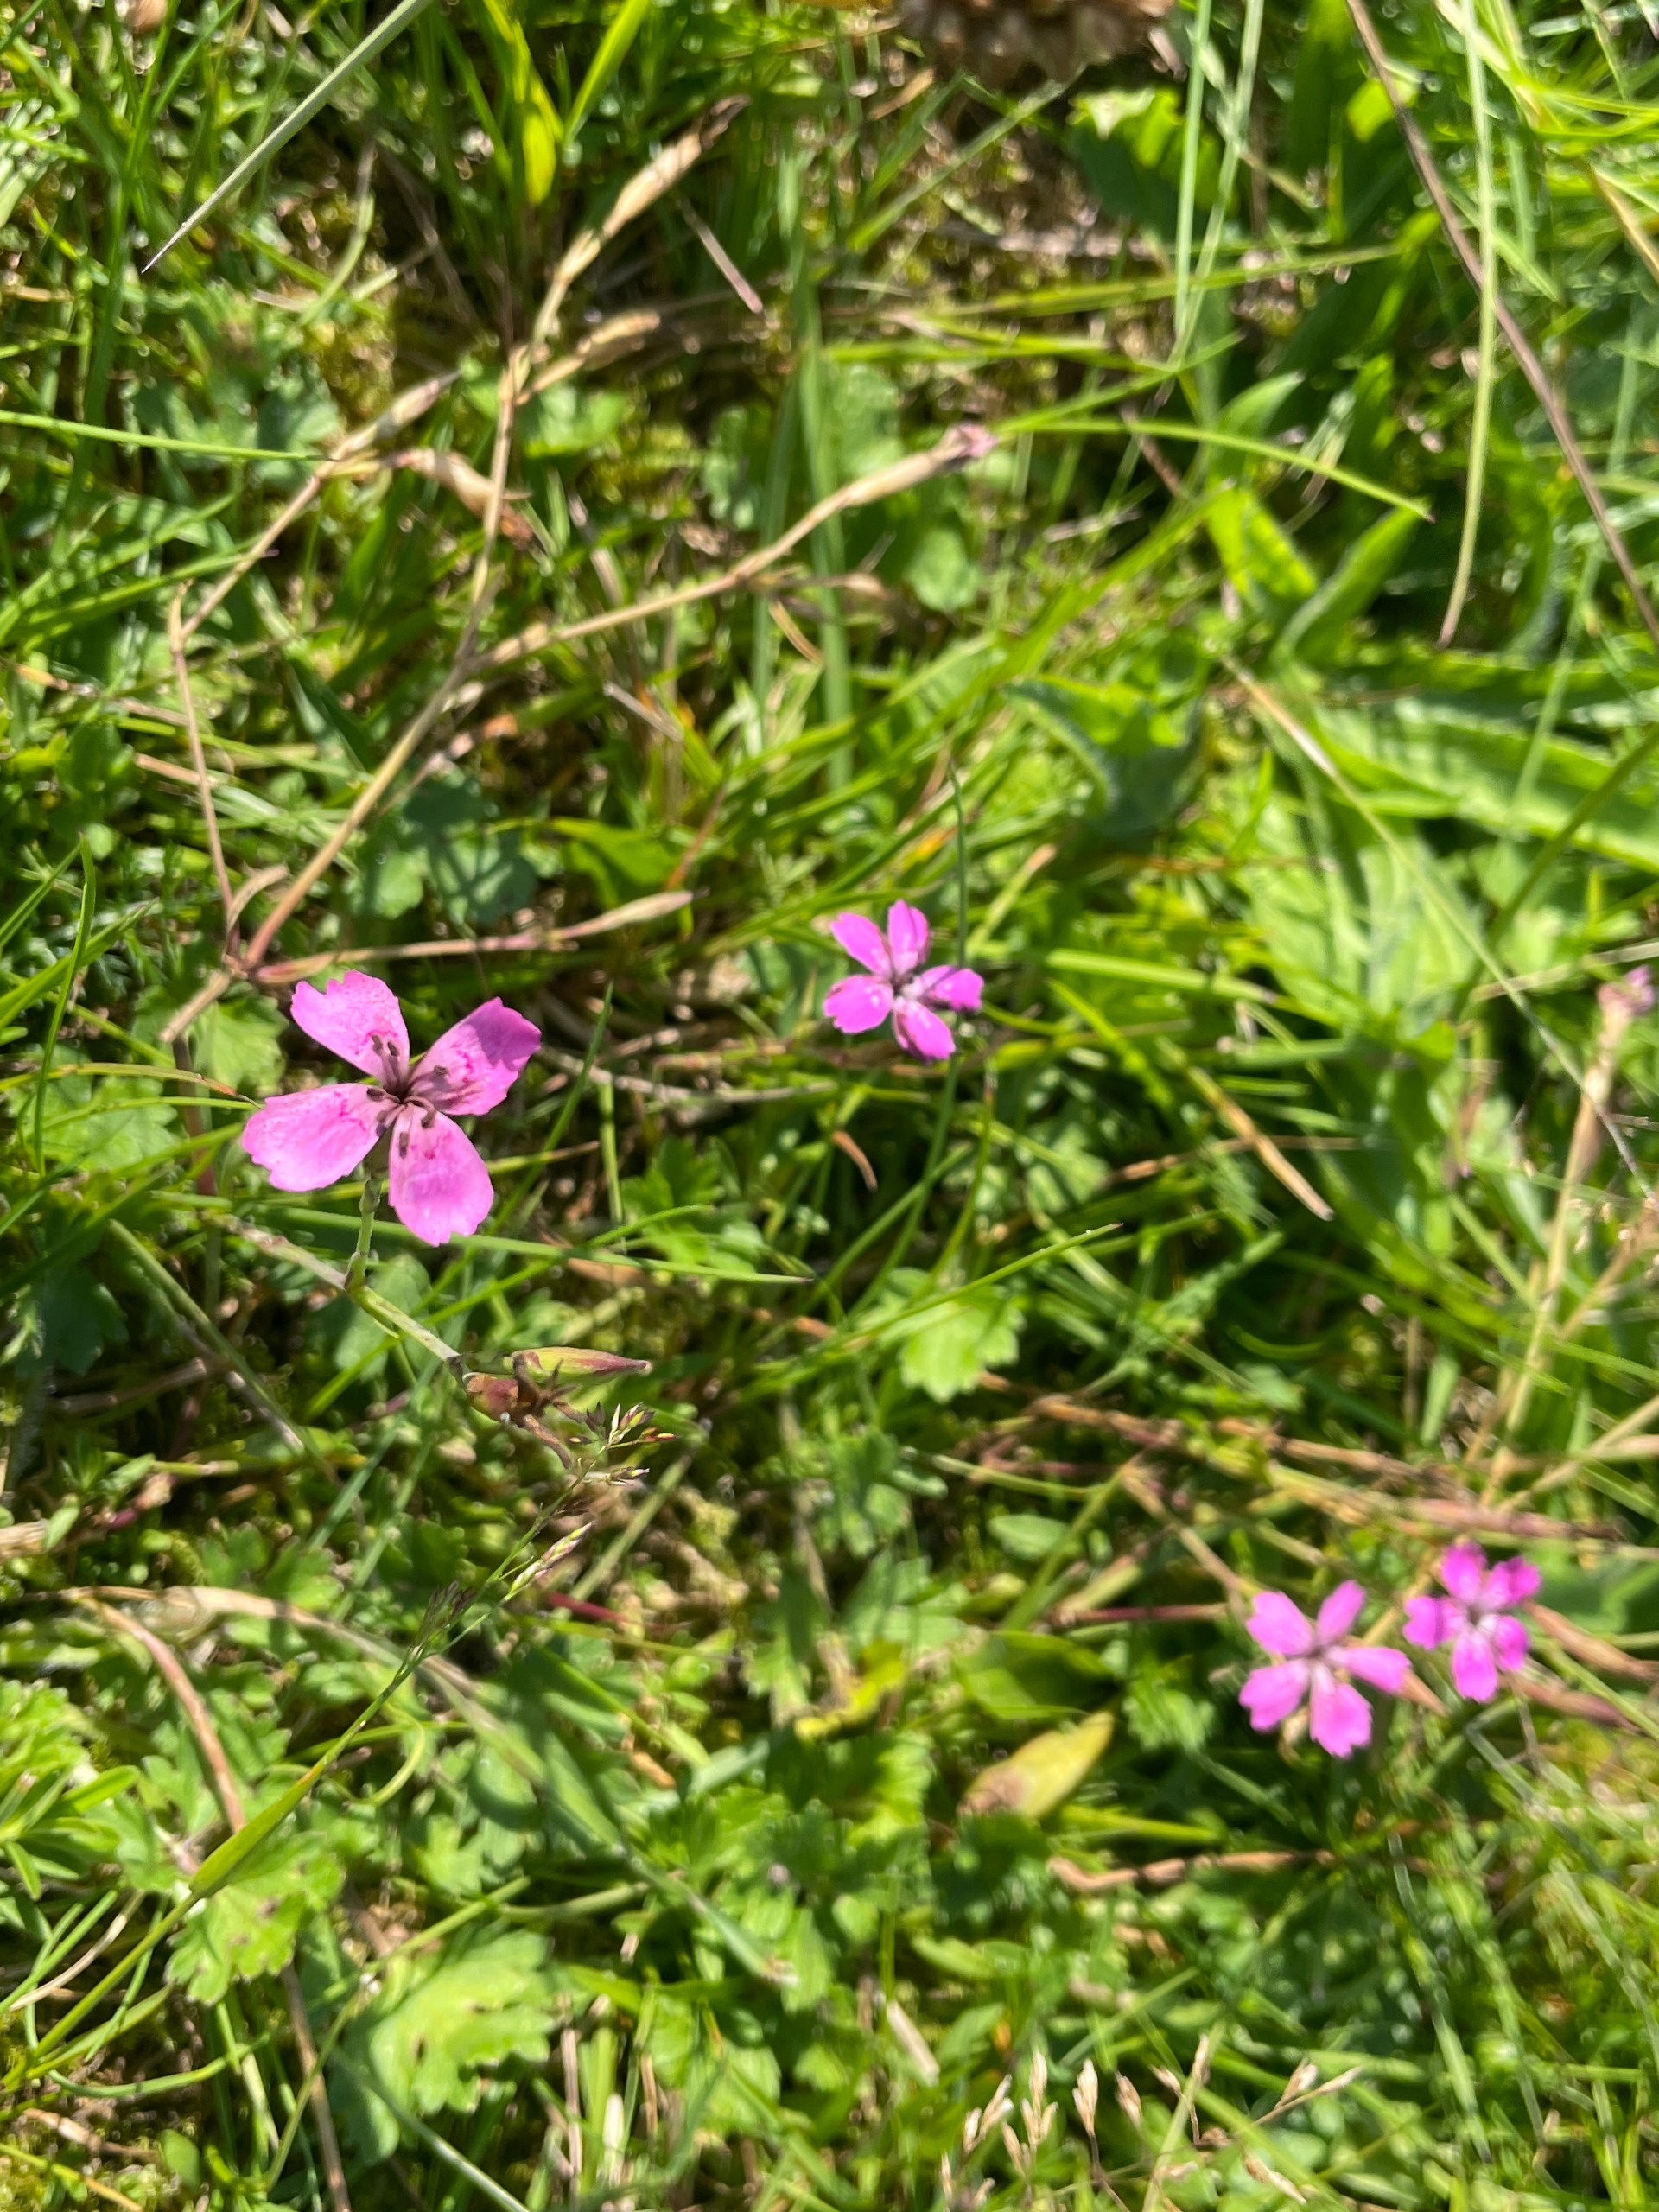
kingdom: Plantae
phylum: Tracheophyta
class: Magnoliopsida
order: Caryophyllales
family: Caryophyllaceae
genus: Dianthus
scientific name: Dianthus deltoides
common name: Bakke-nellike
